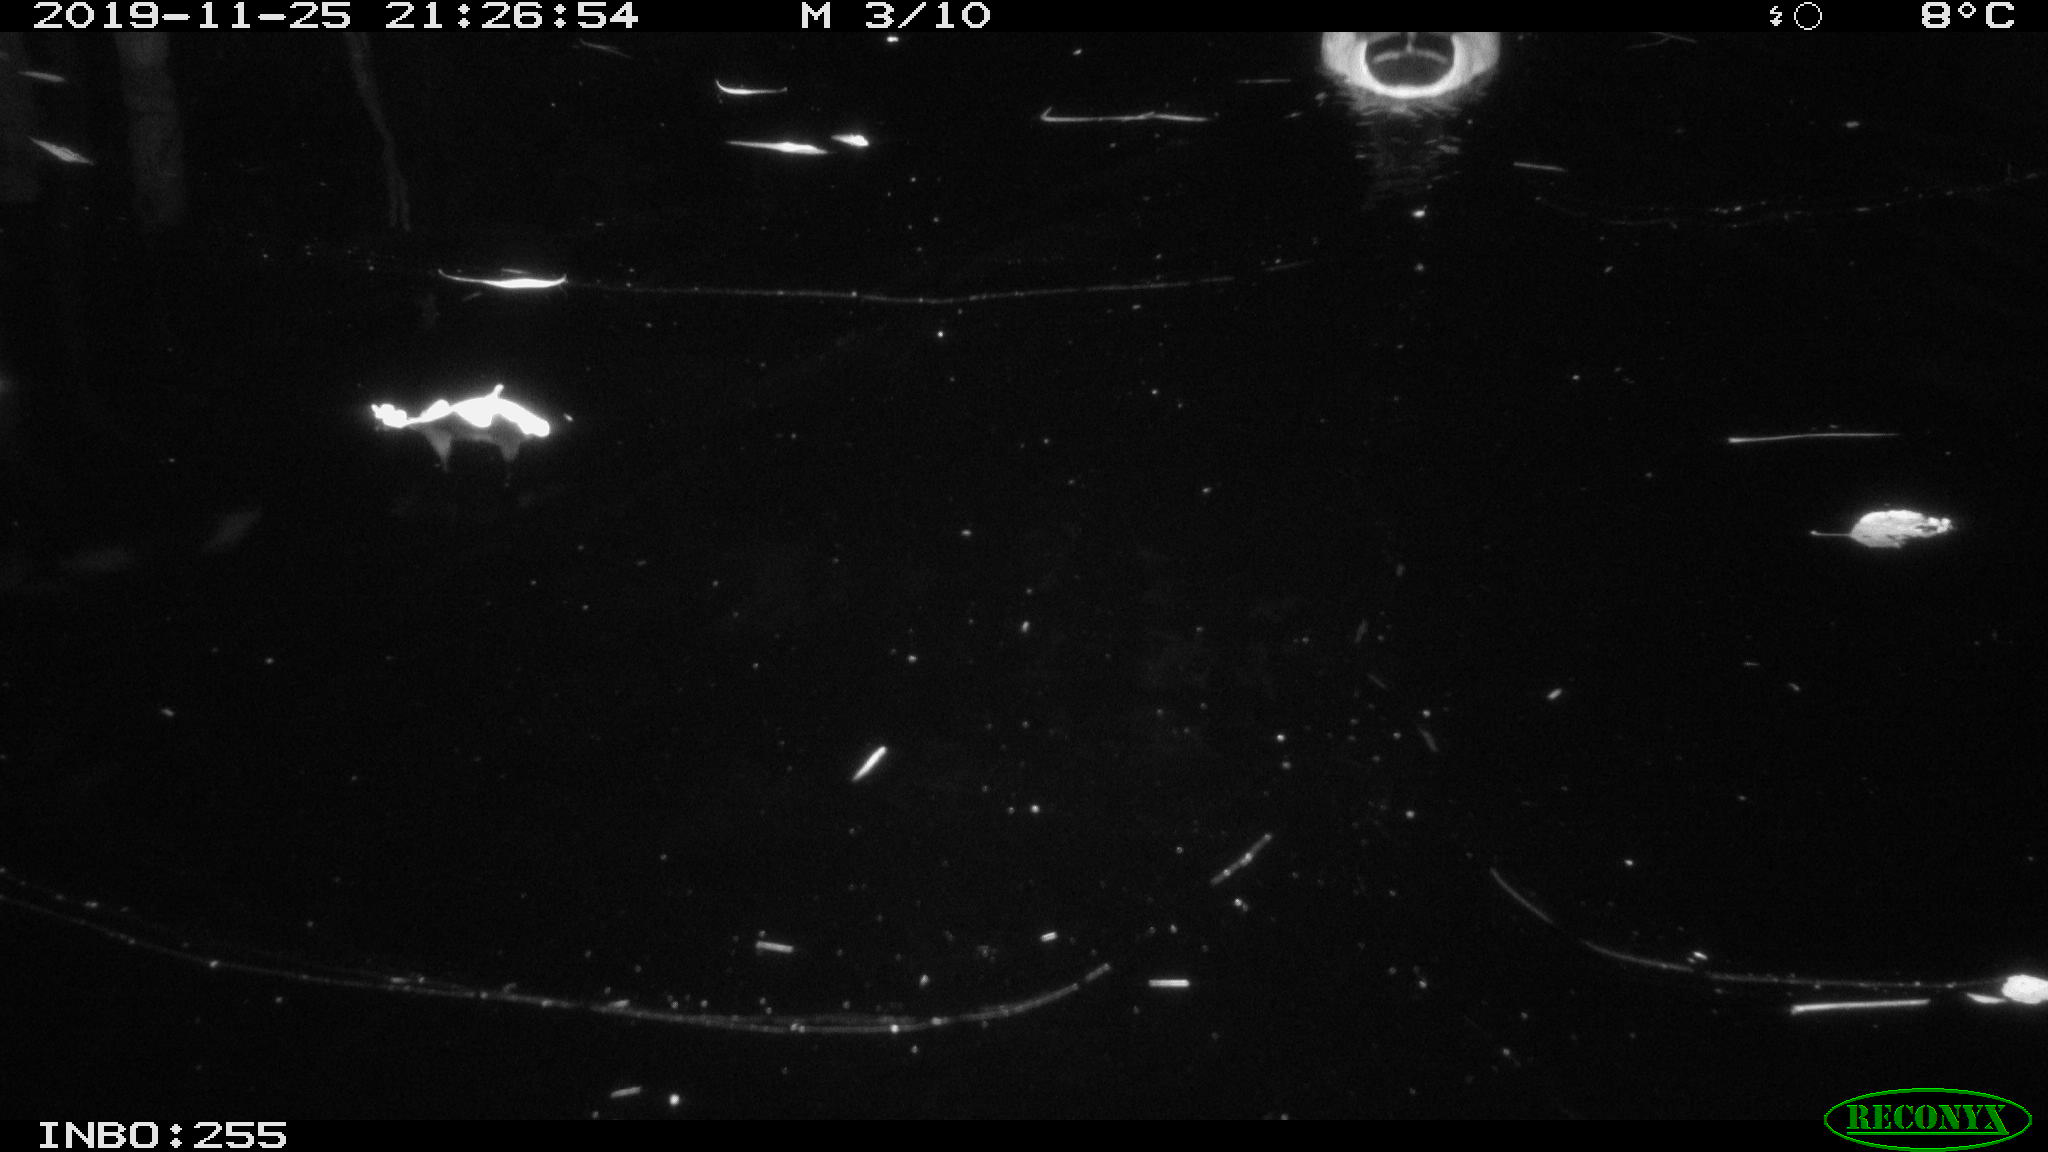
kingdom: Animalia
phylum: Chordata
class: Aves
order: Anseriformes
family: Anatidae
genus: Anas
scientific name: Anas platyrhynchos
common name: Mallard
